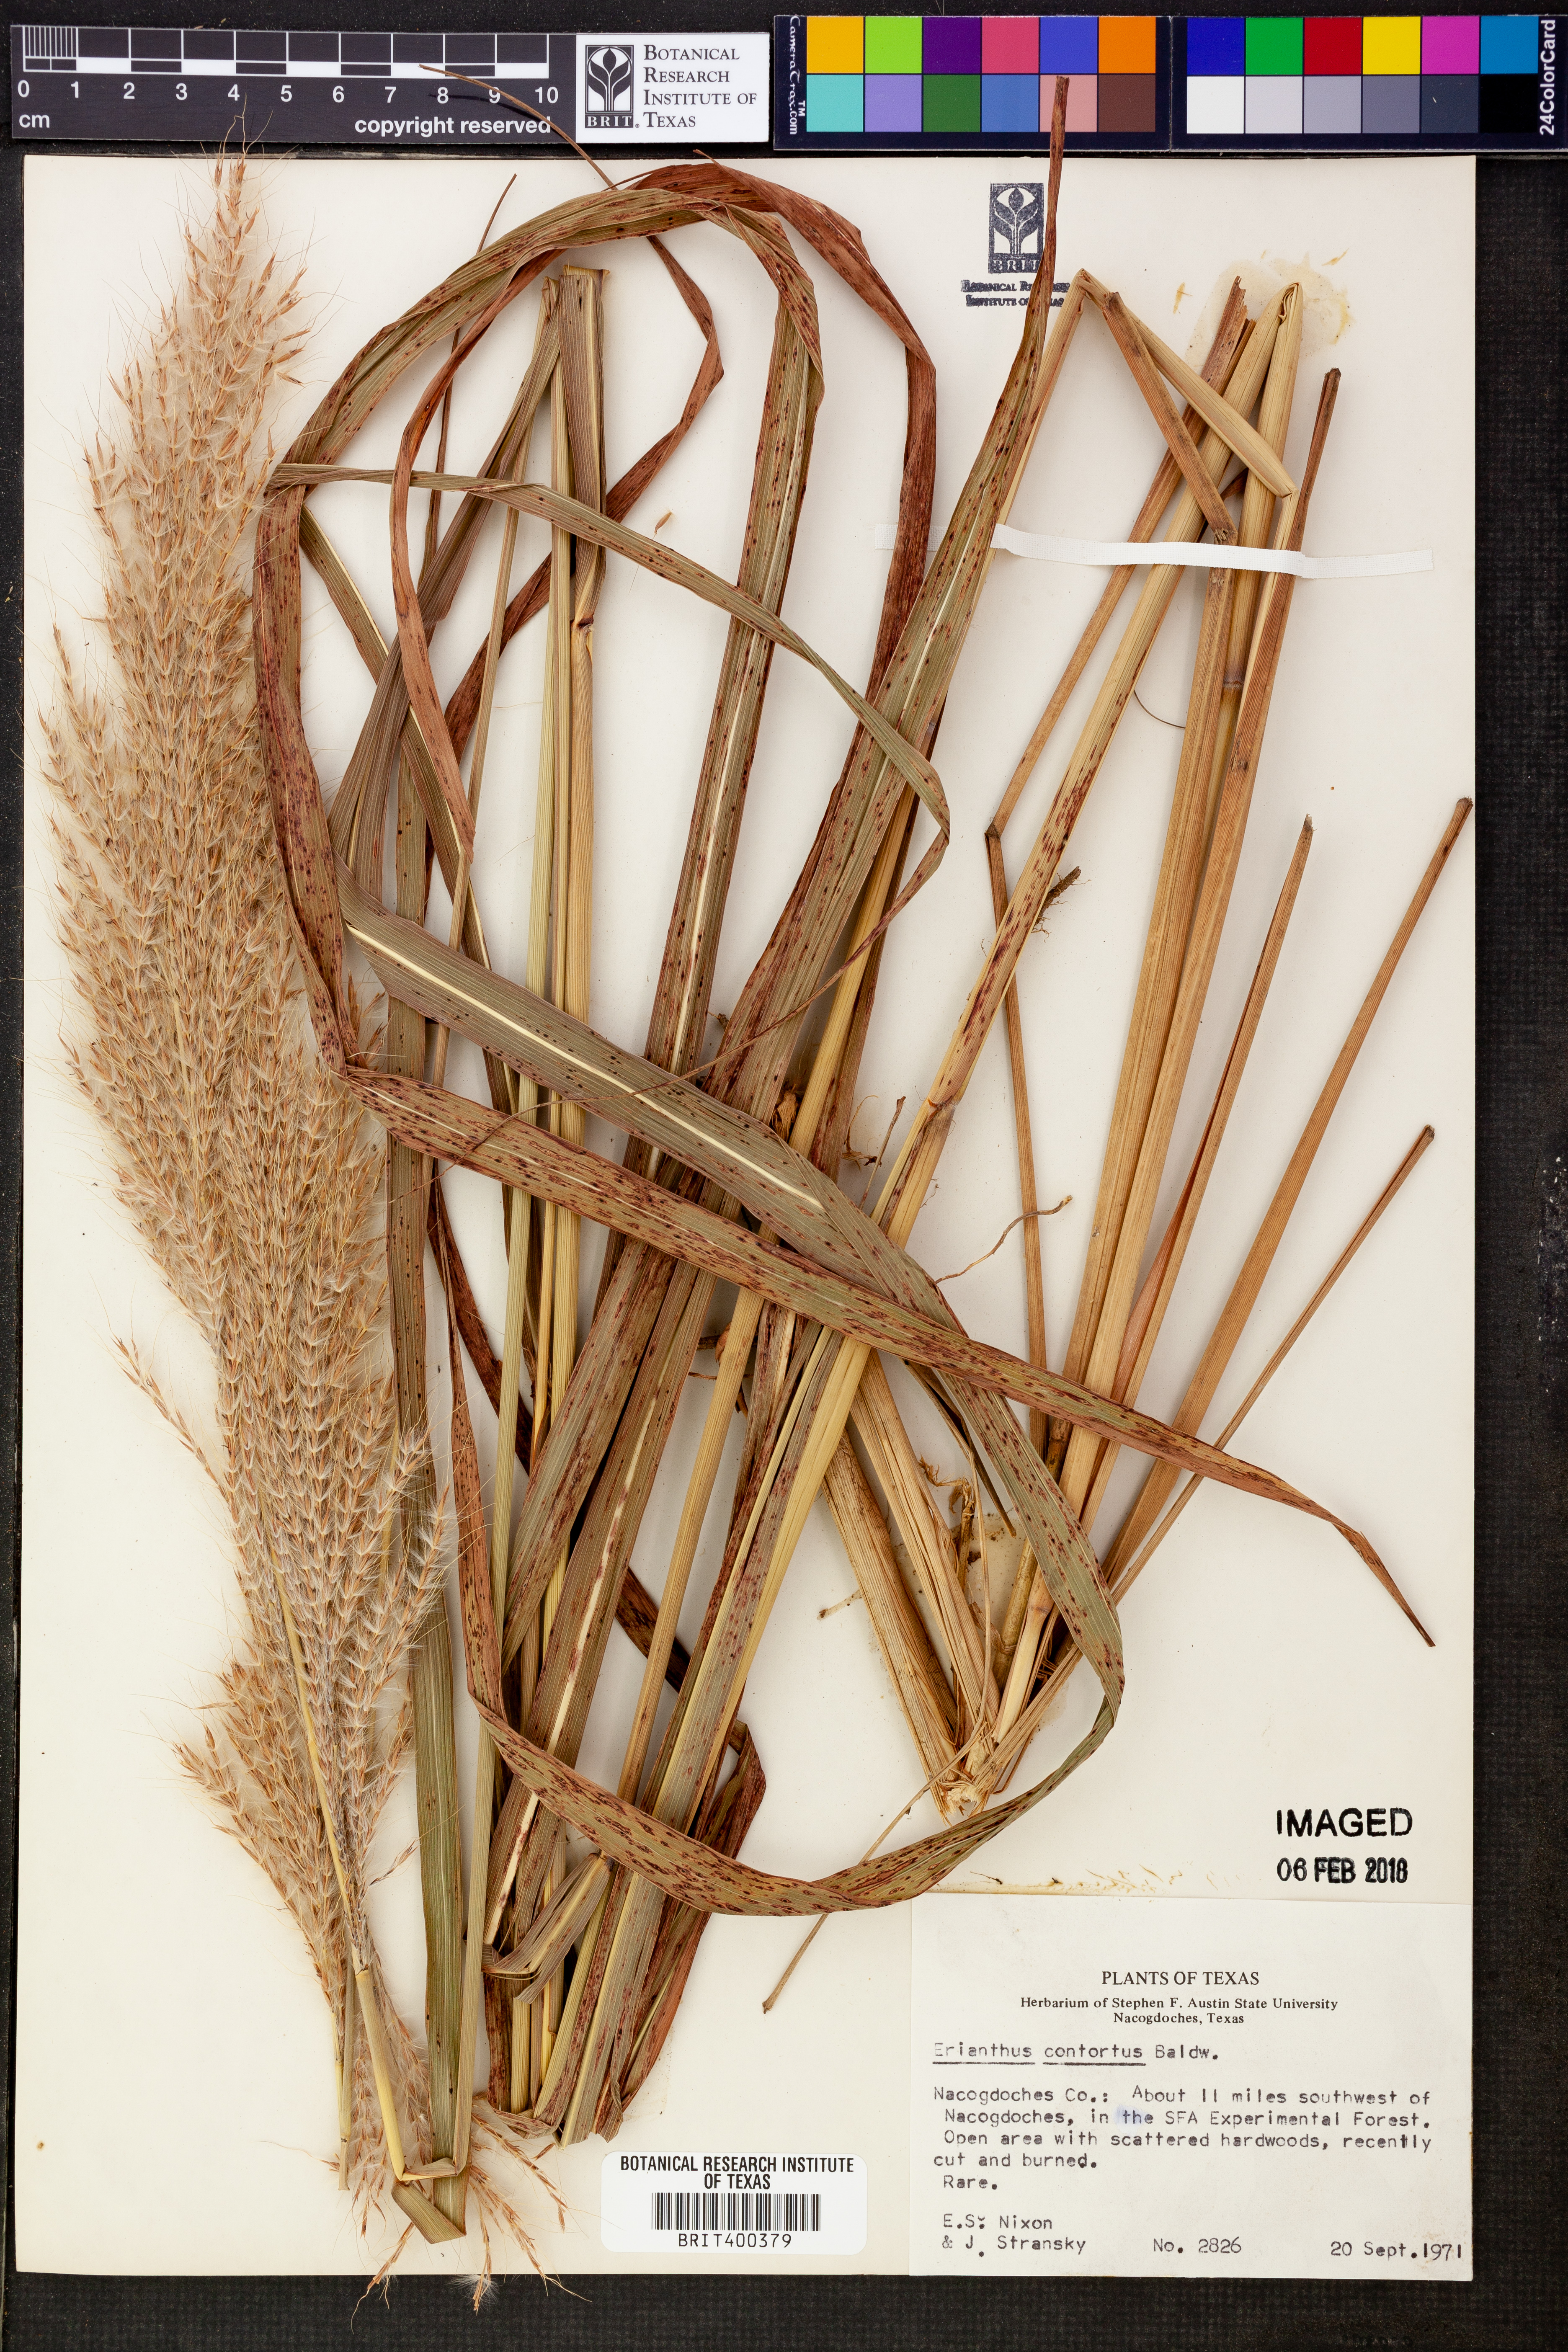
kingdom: Plantae
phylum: Tracheophyta
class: Liliopsida
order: Poales
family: Poaceae
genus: Erianthus
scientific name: Erianthus contortus
